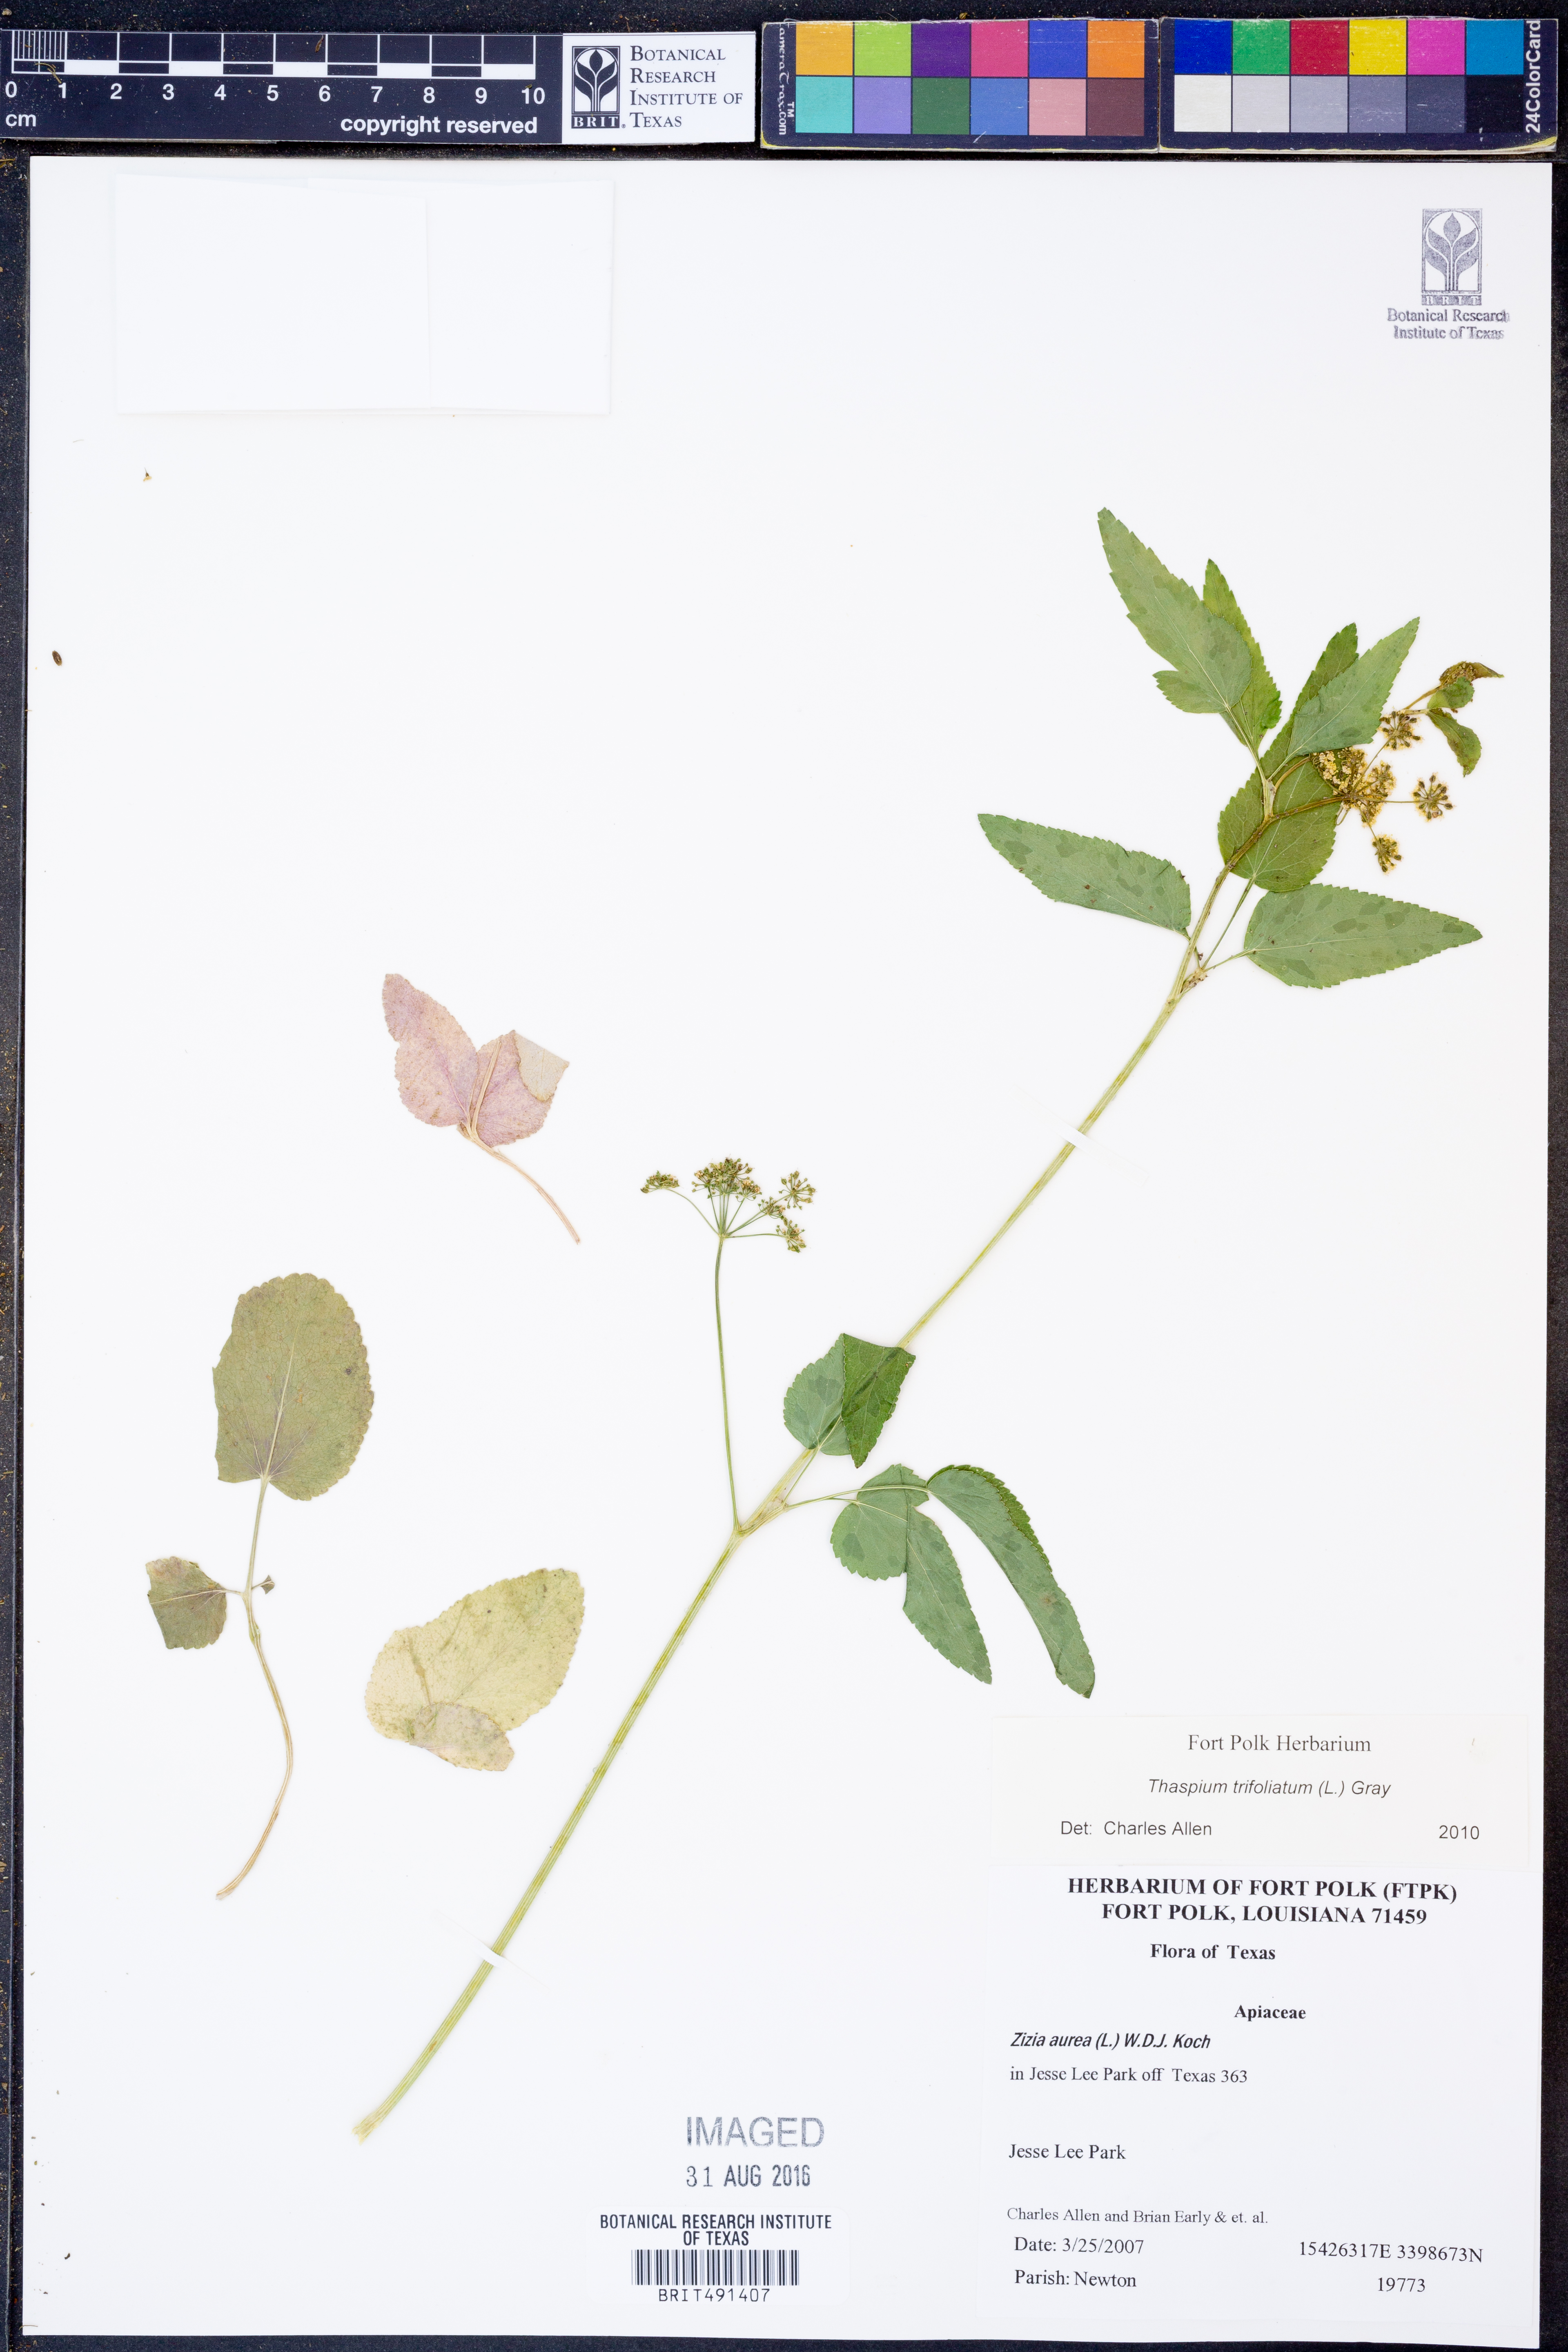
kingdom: Plantae
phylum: Tracheophyta
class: Magnoliopsida
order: Apiales
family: Apiaceae
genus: Thaspium
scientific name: Thaspium trifoliatum
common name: Purple meadow-parsnip
